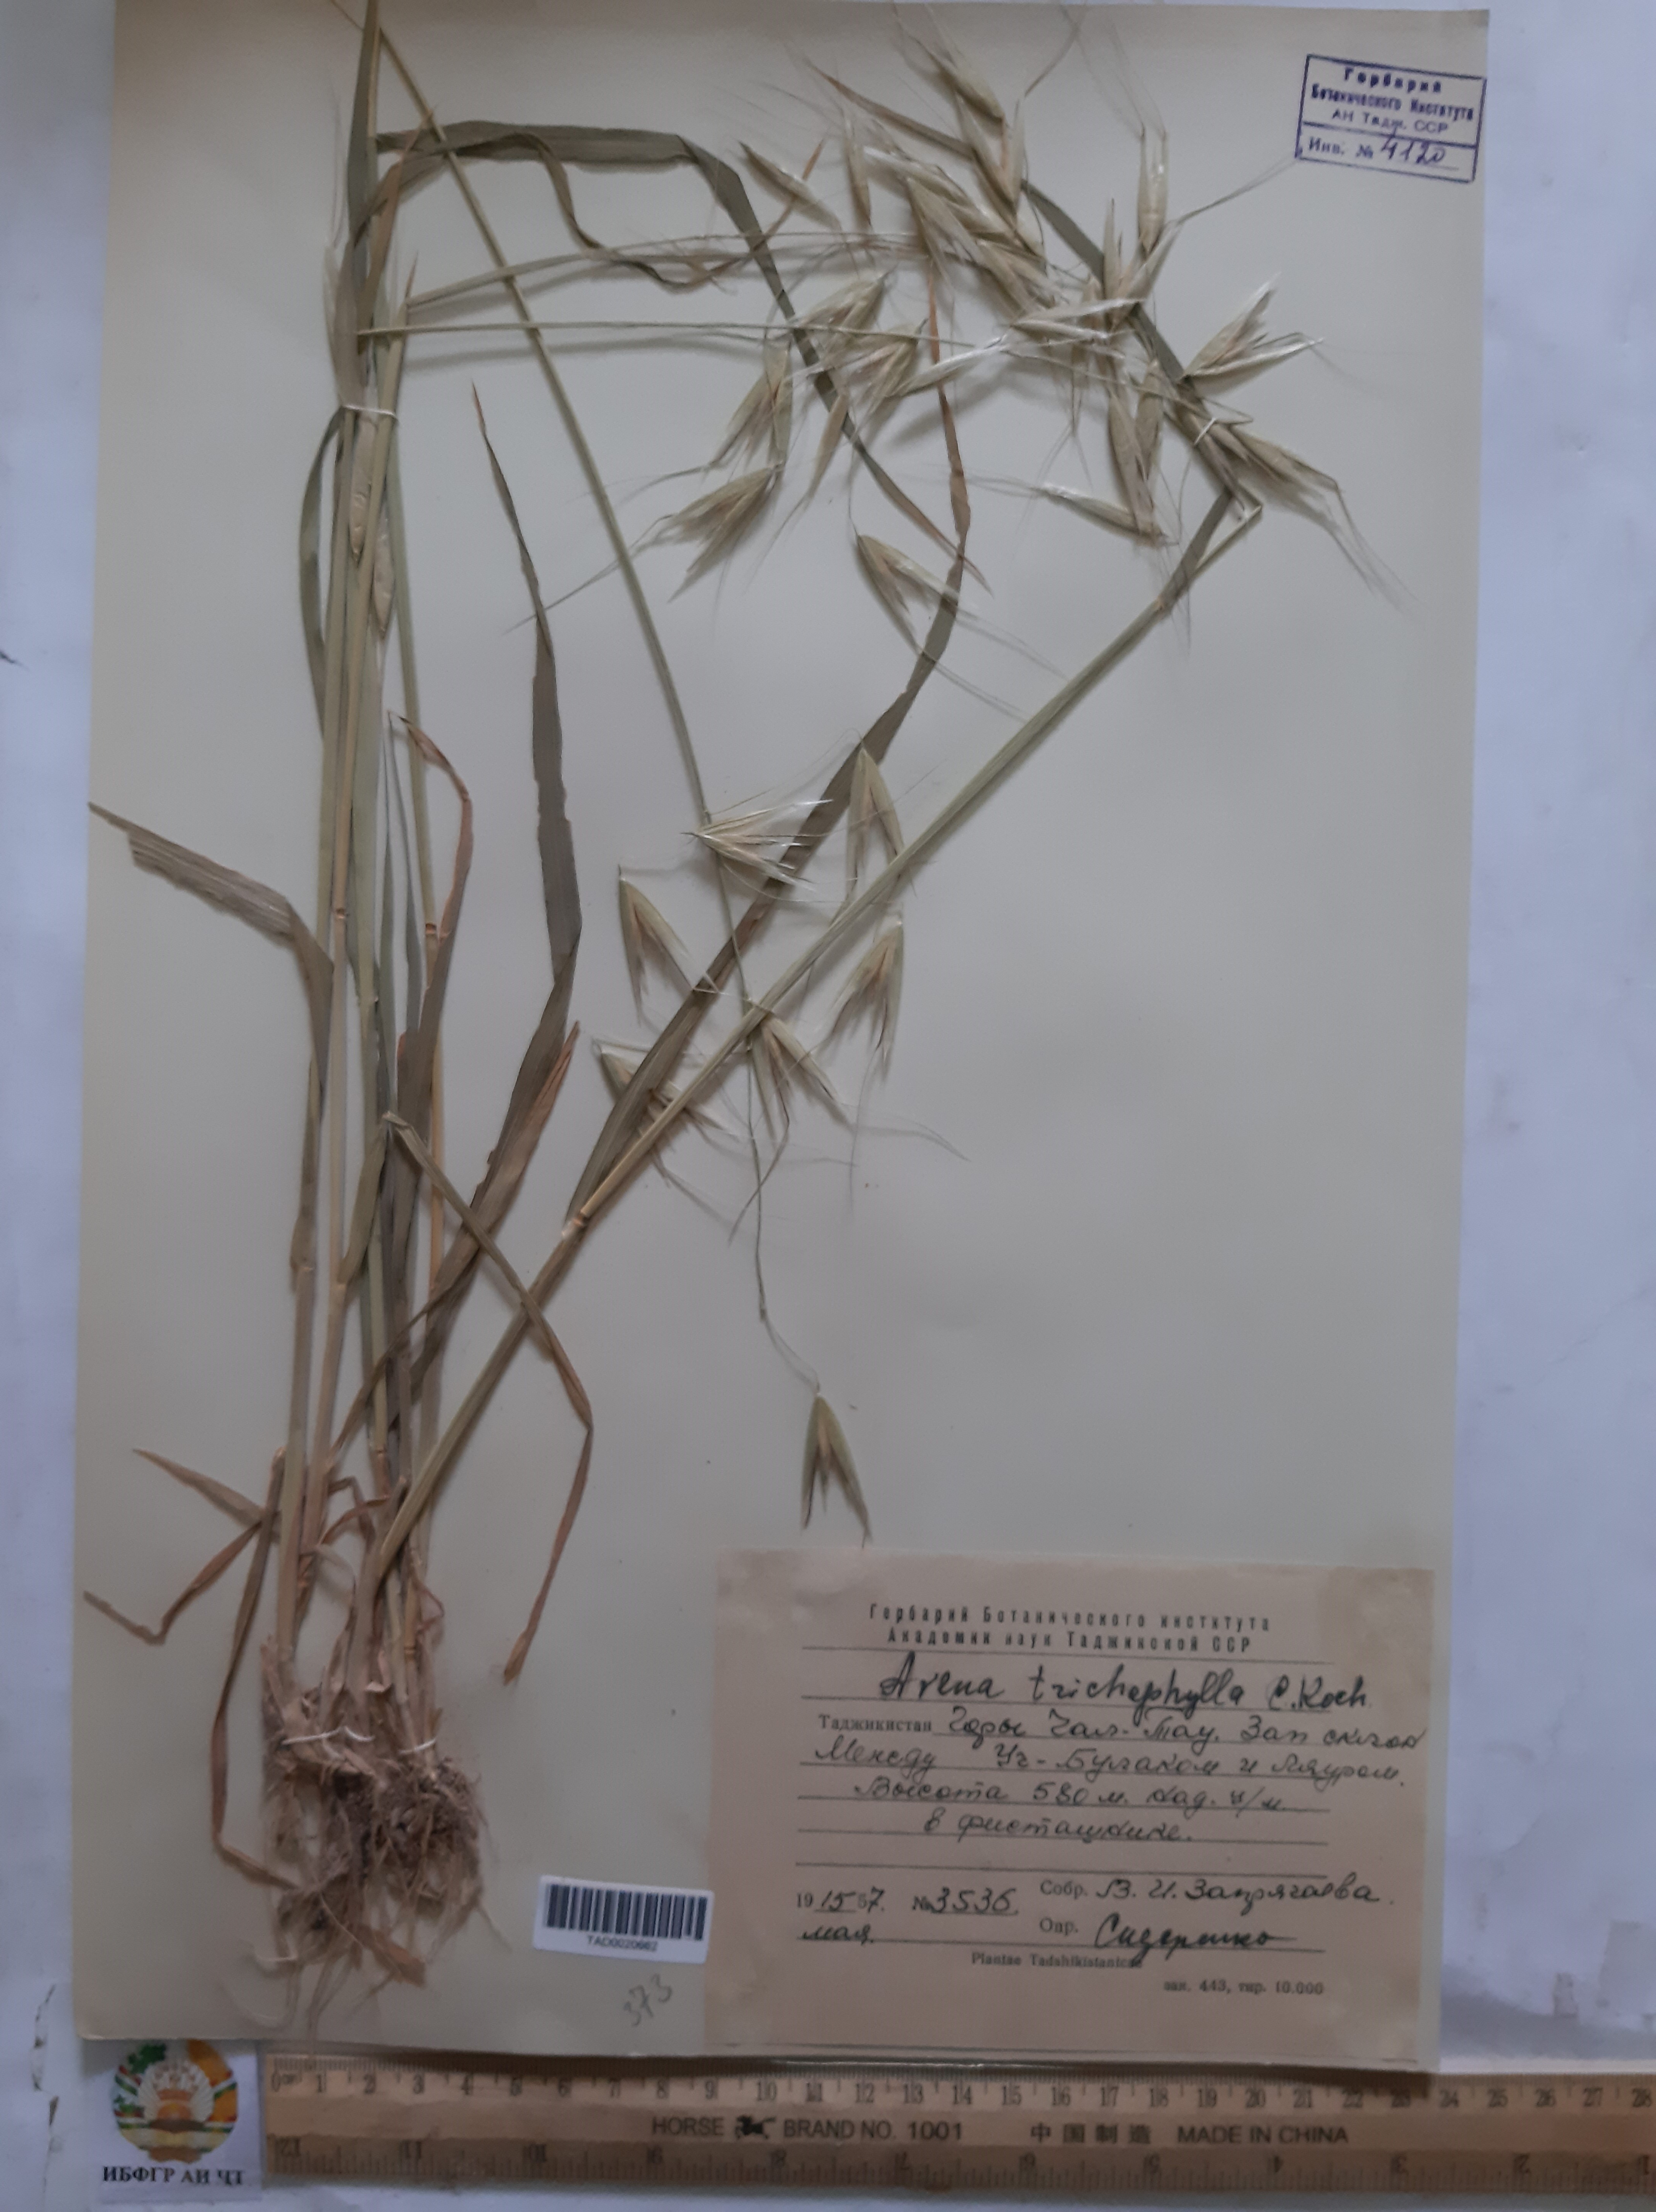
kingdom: Plantae
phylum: Tracheophyta
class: Liliopsida
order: Poales
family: Poaceae
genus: Avena
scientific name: Avena sterilis
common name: Animated oat
